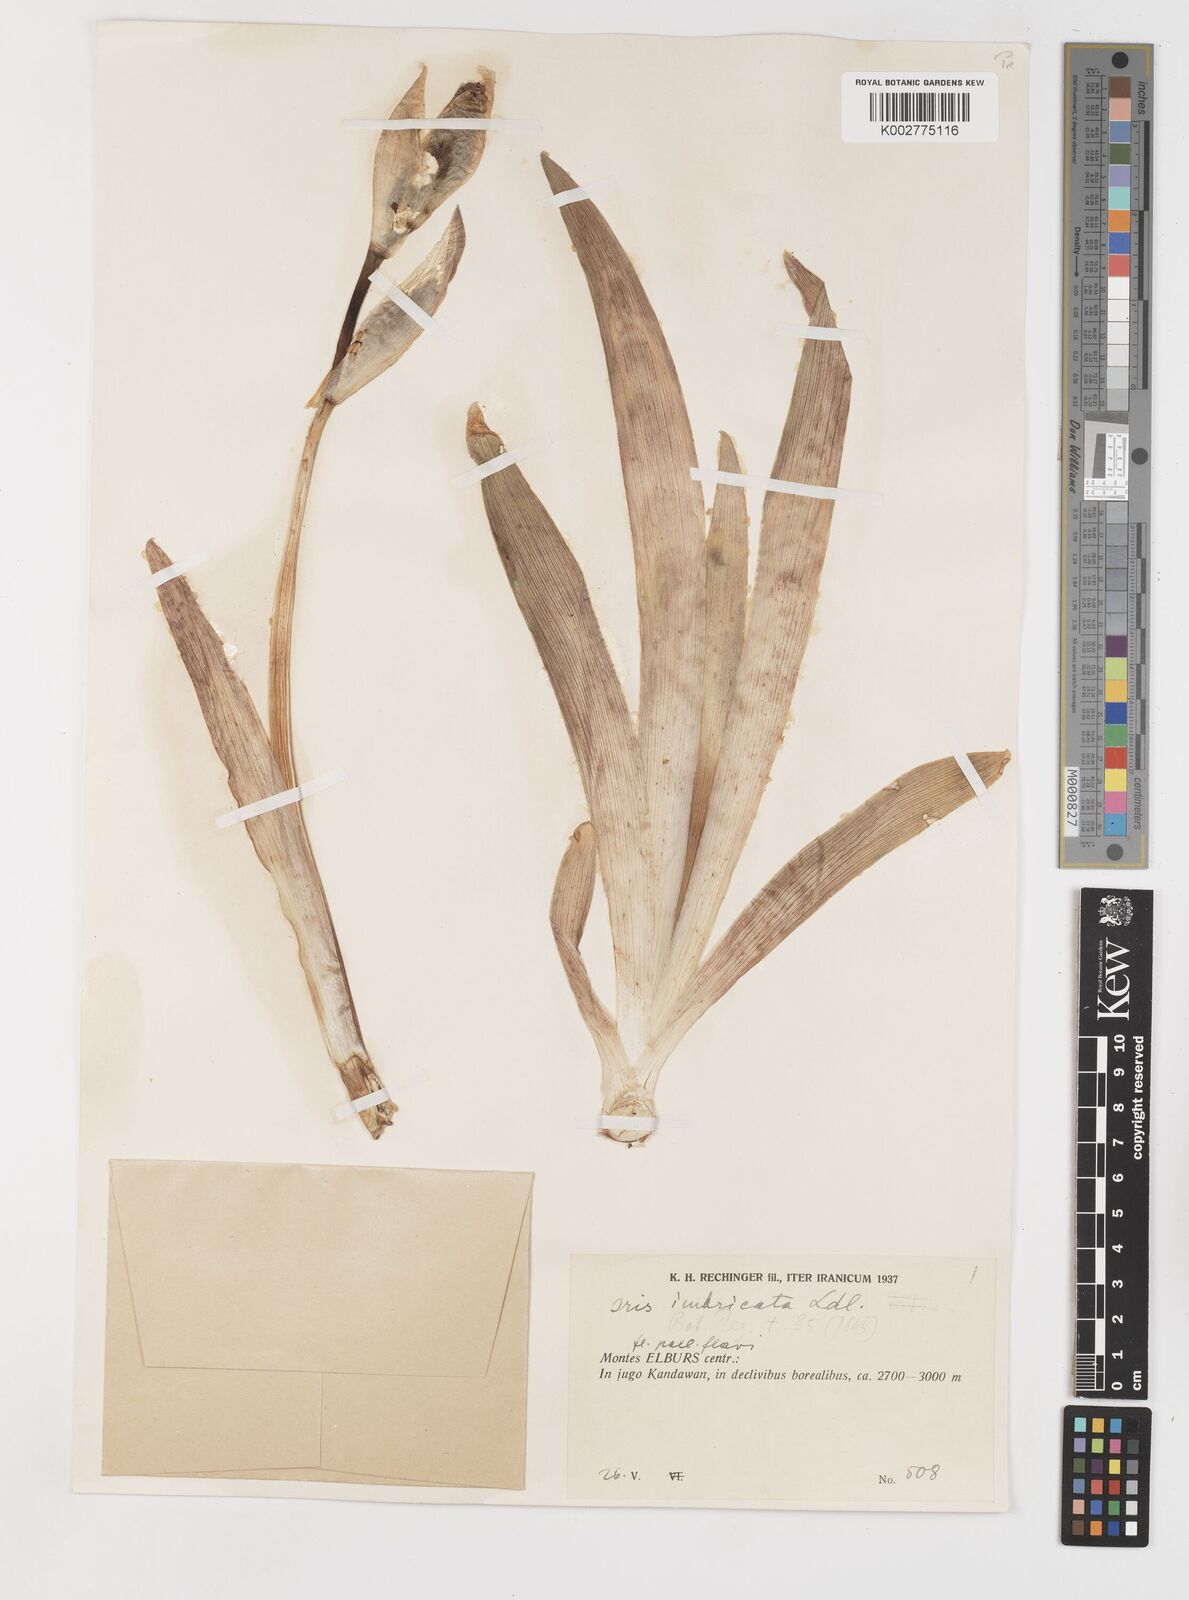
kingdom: Plantae
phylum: Tracheophyta
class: Liliopsida
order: Asparagales
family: Iridaceae
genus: Iris
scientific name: Iris imbricata
